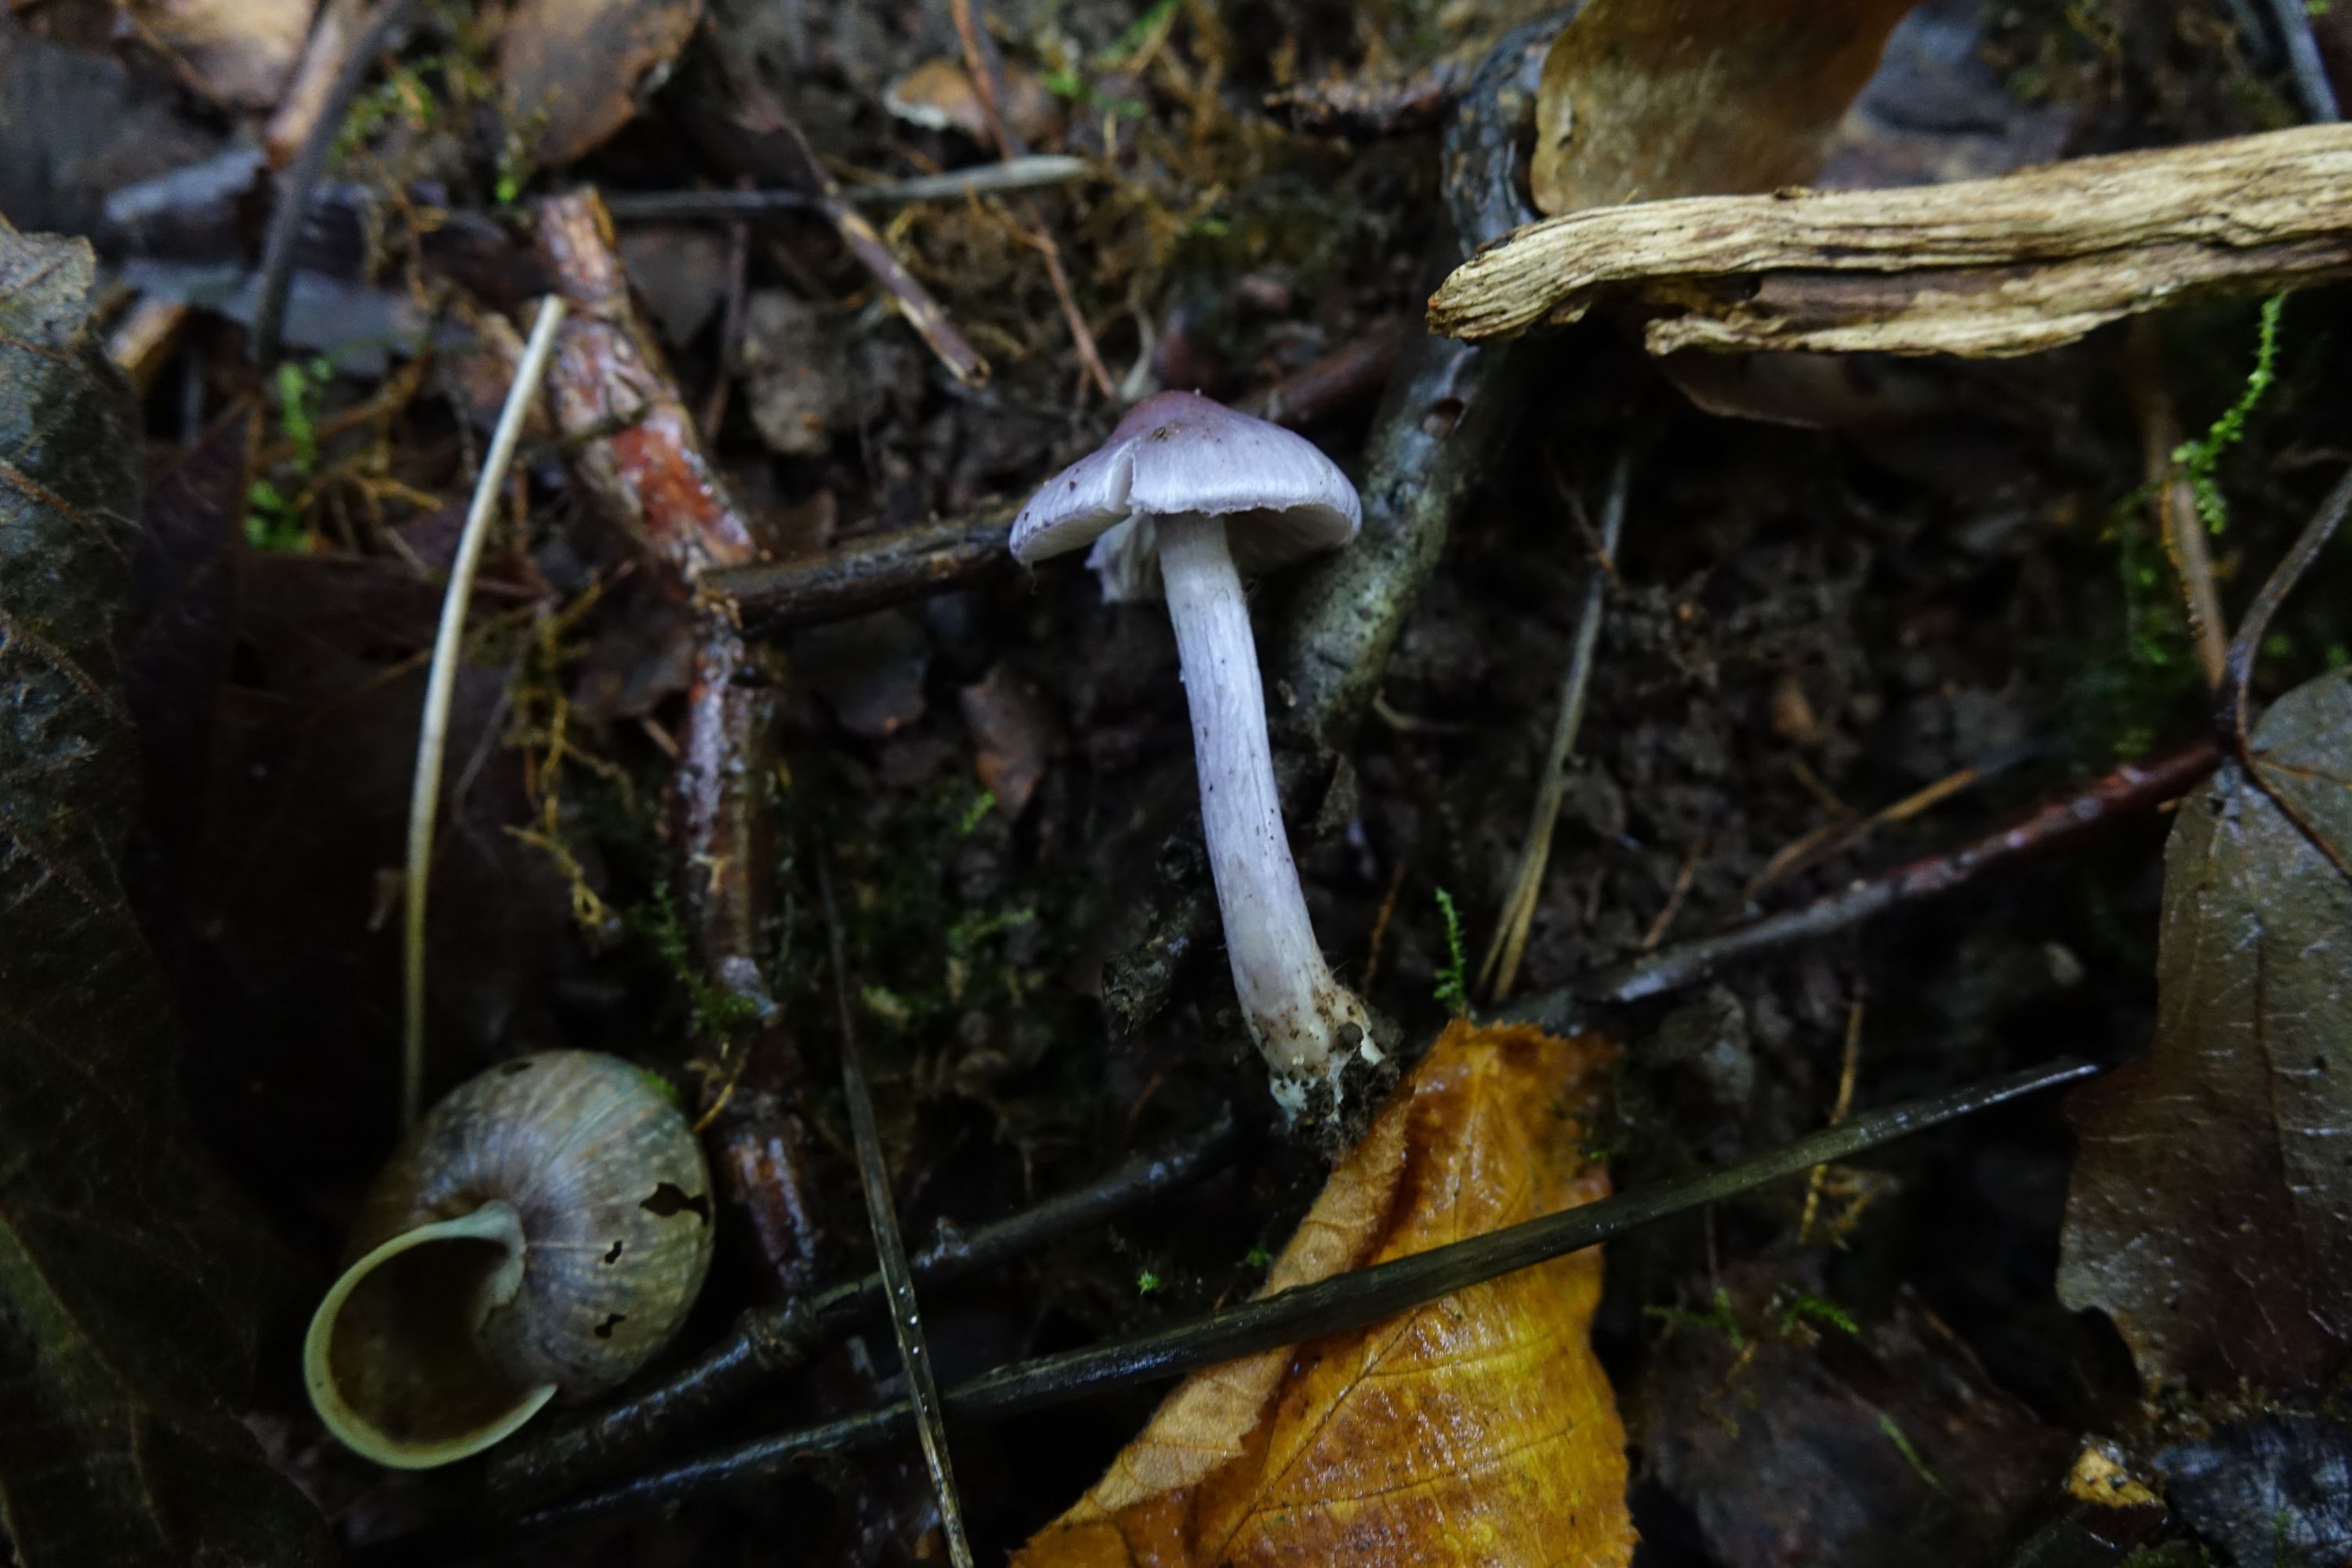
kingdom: Fungi
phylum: Basidiomycota
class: Agaricomycetes
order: Agaricales
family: Inocybaceae
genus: Inocybe
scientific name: Inocybe geophylla
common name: White fibrecap
